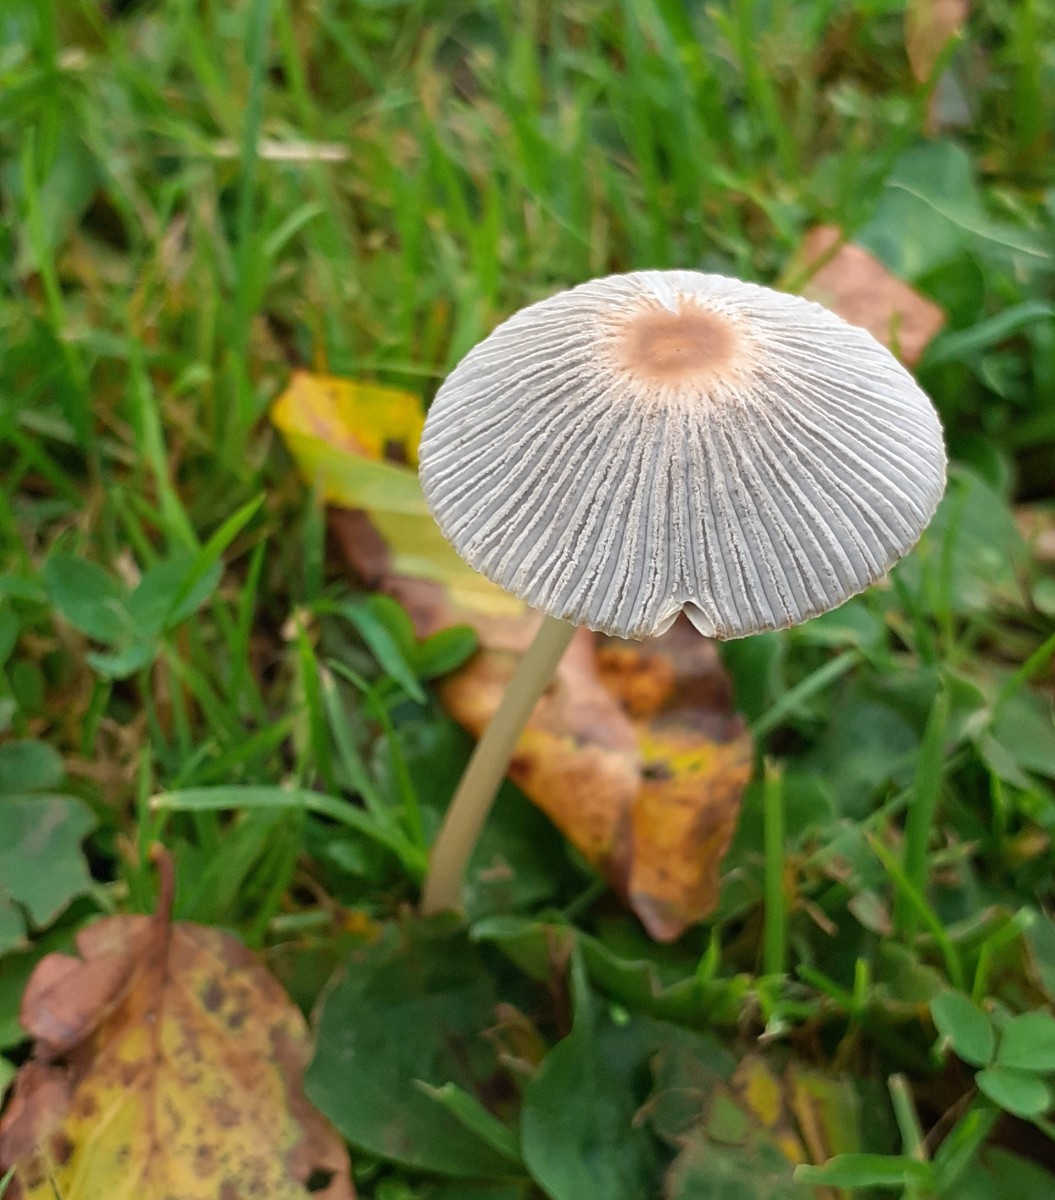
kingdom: Fungi
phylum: Basidiomycota
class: Agaricomycetes
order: Agaricales
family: Psathyrellaceae
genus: Parasola
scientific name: Parasola
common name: hjulhat
